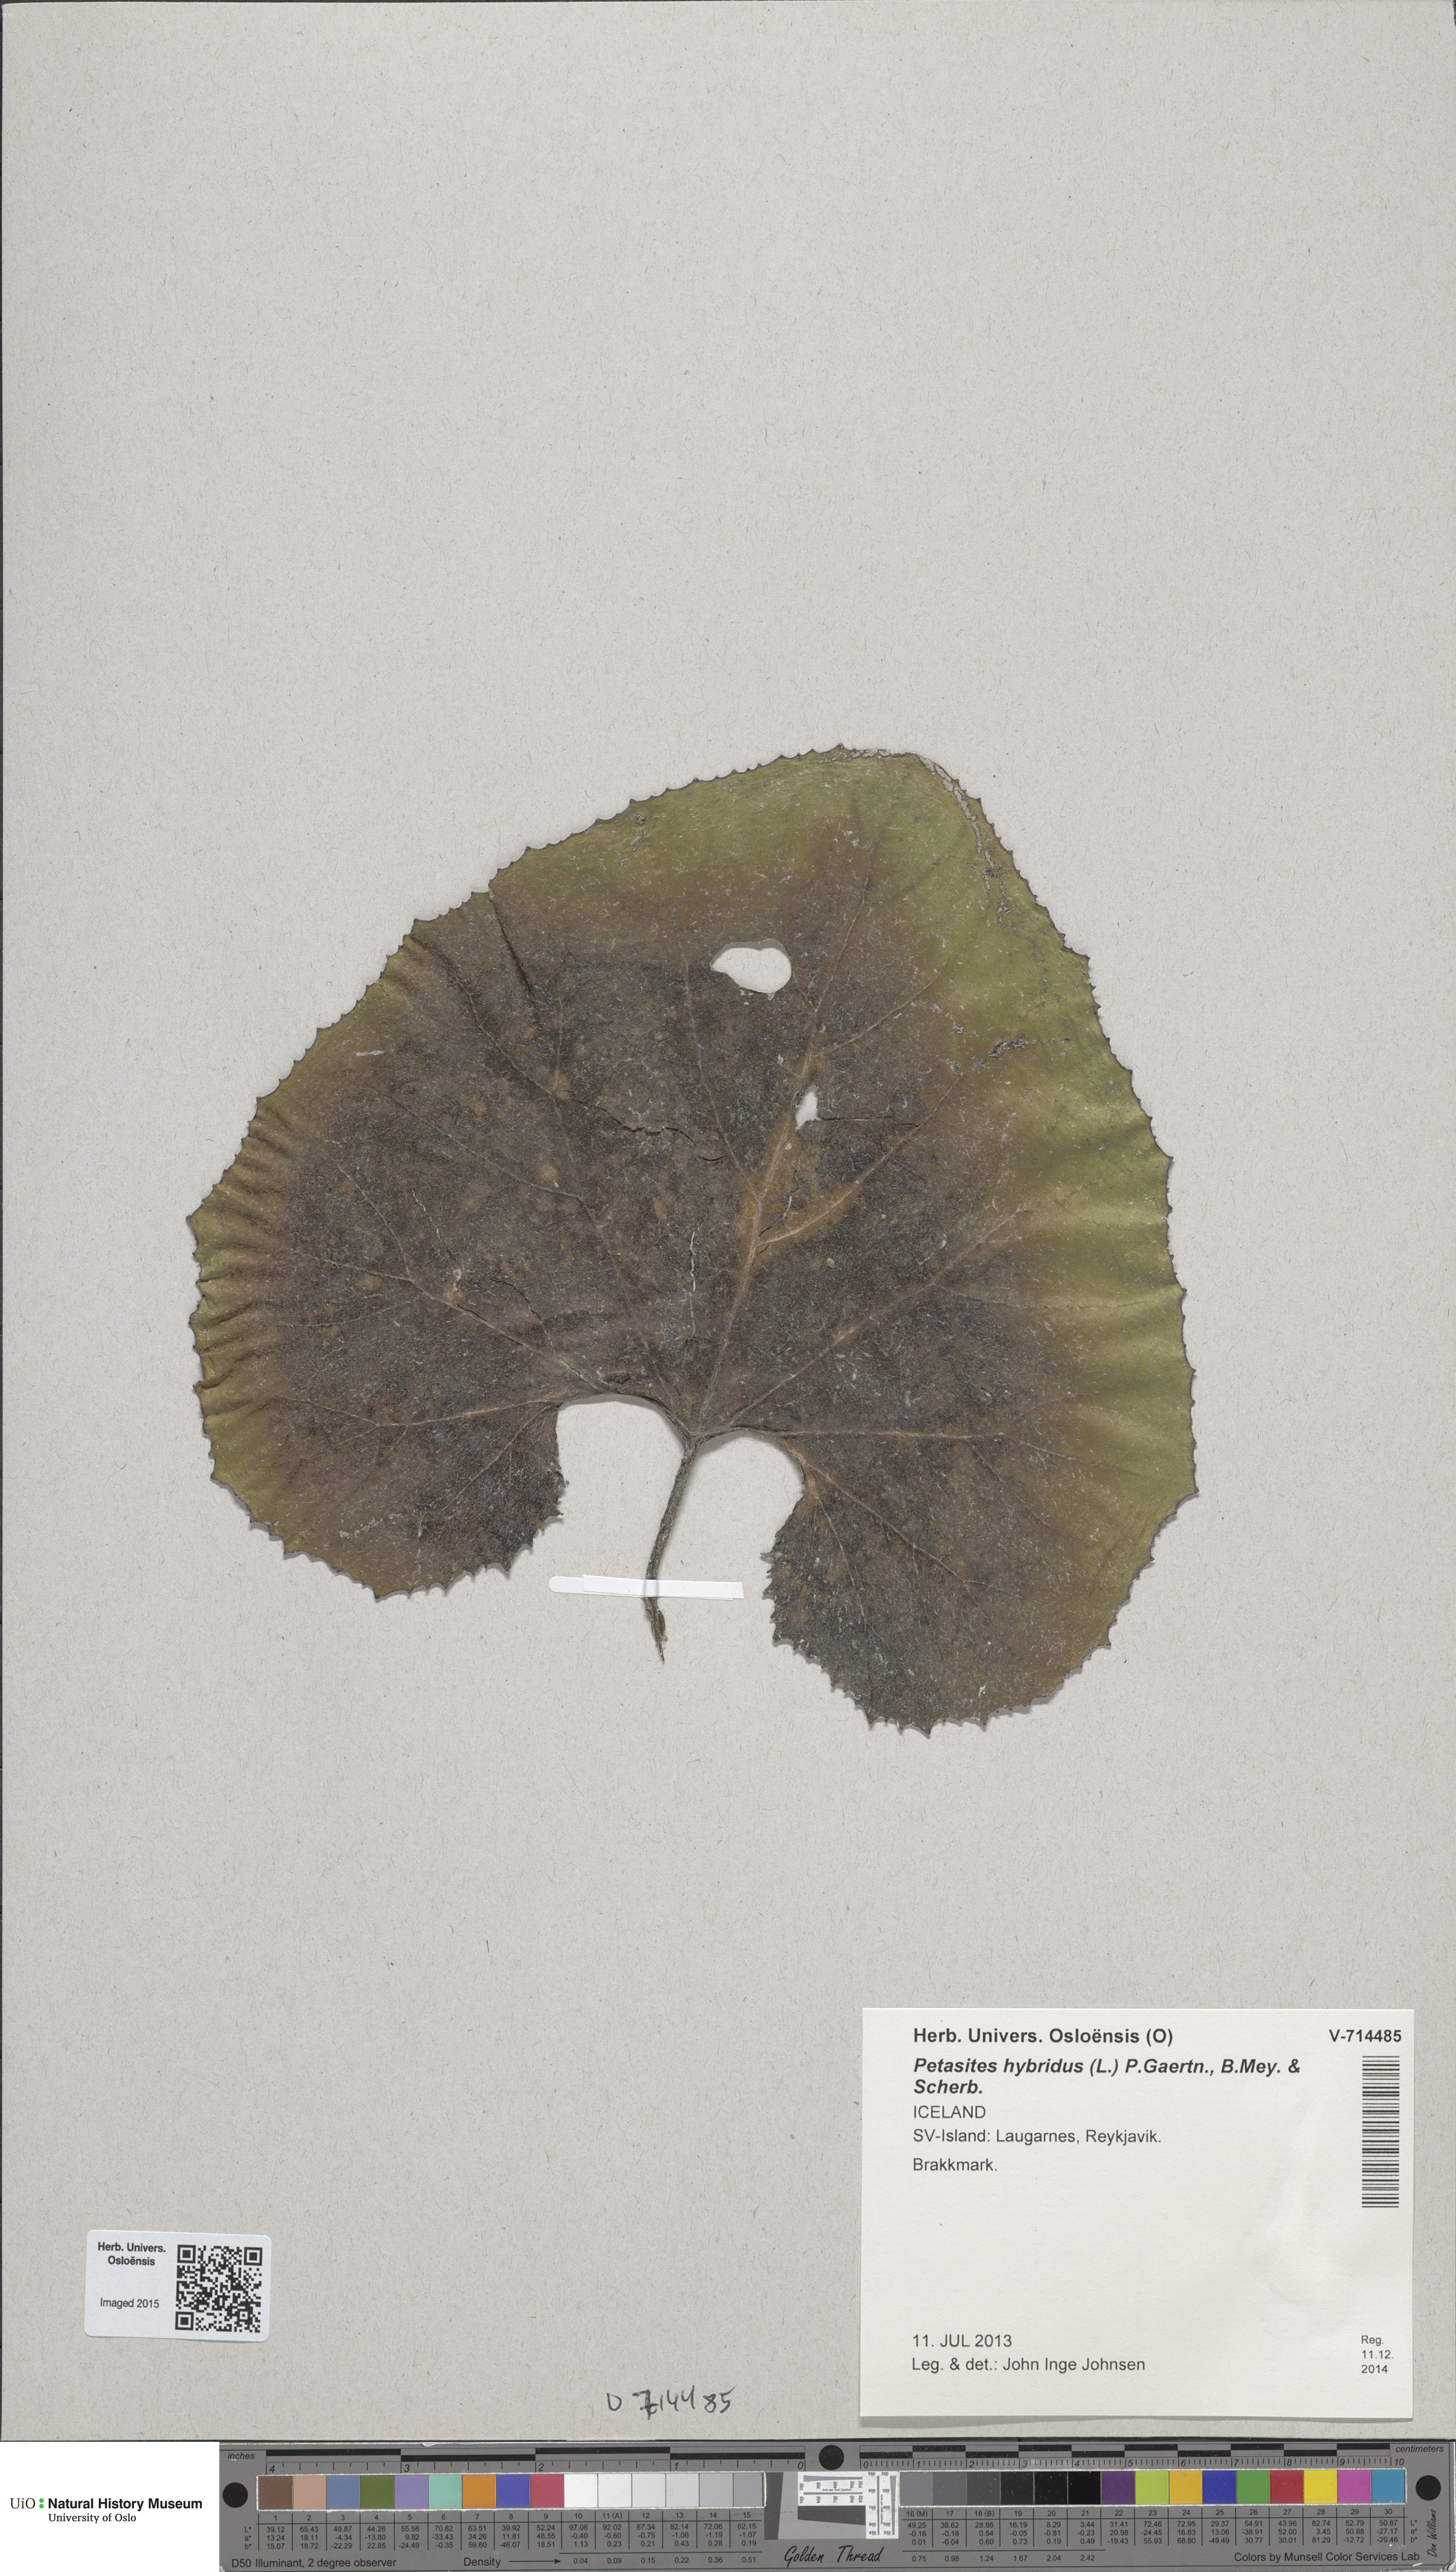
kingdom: Plantae
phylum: Tracheophyta
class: Magnoliopsida
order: Asterales
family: Asteraceae
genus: Petasites
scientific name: Petasites hybridus
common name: Butterbur
